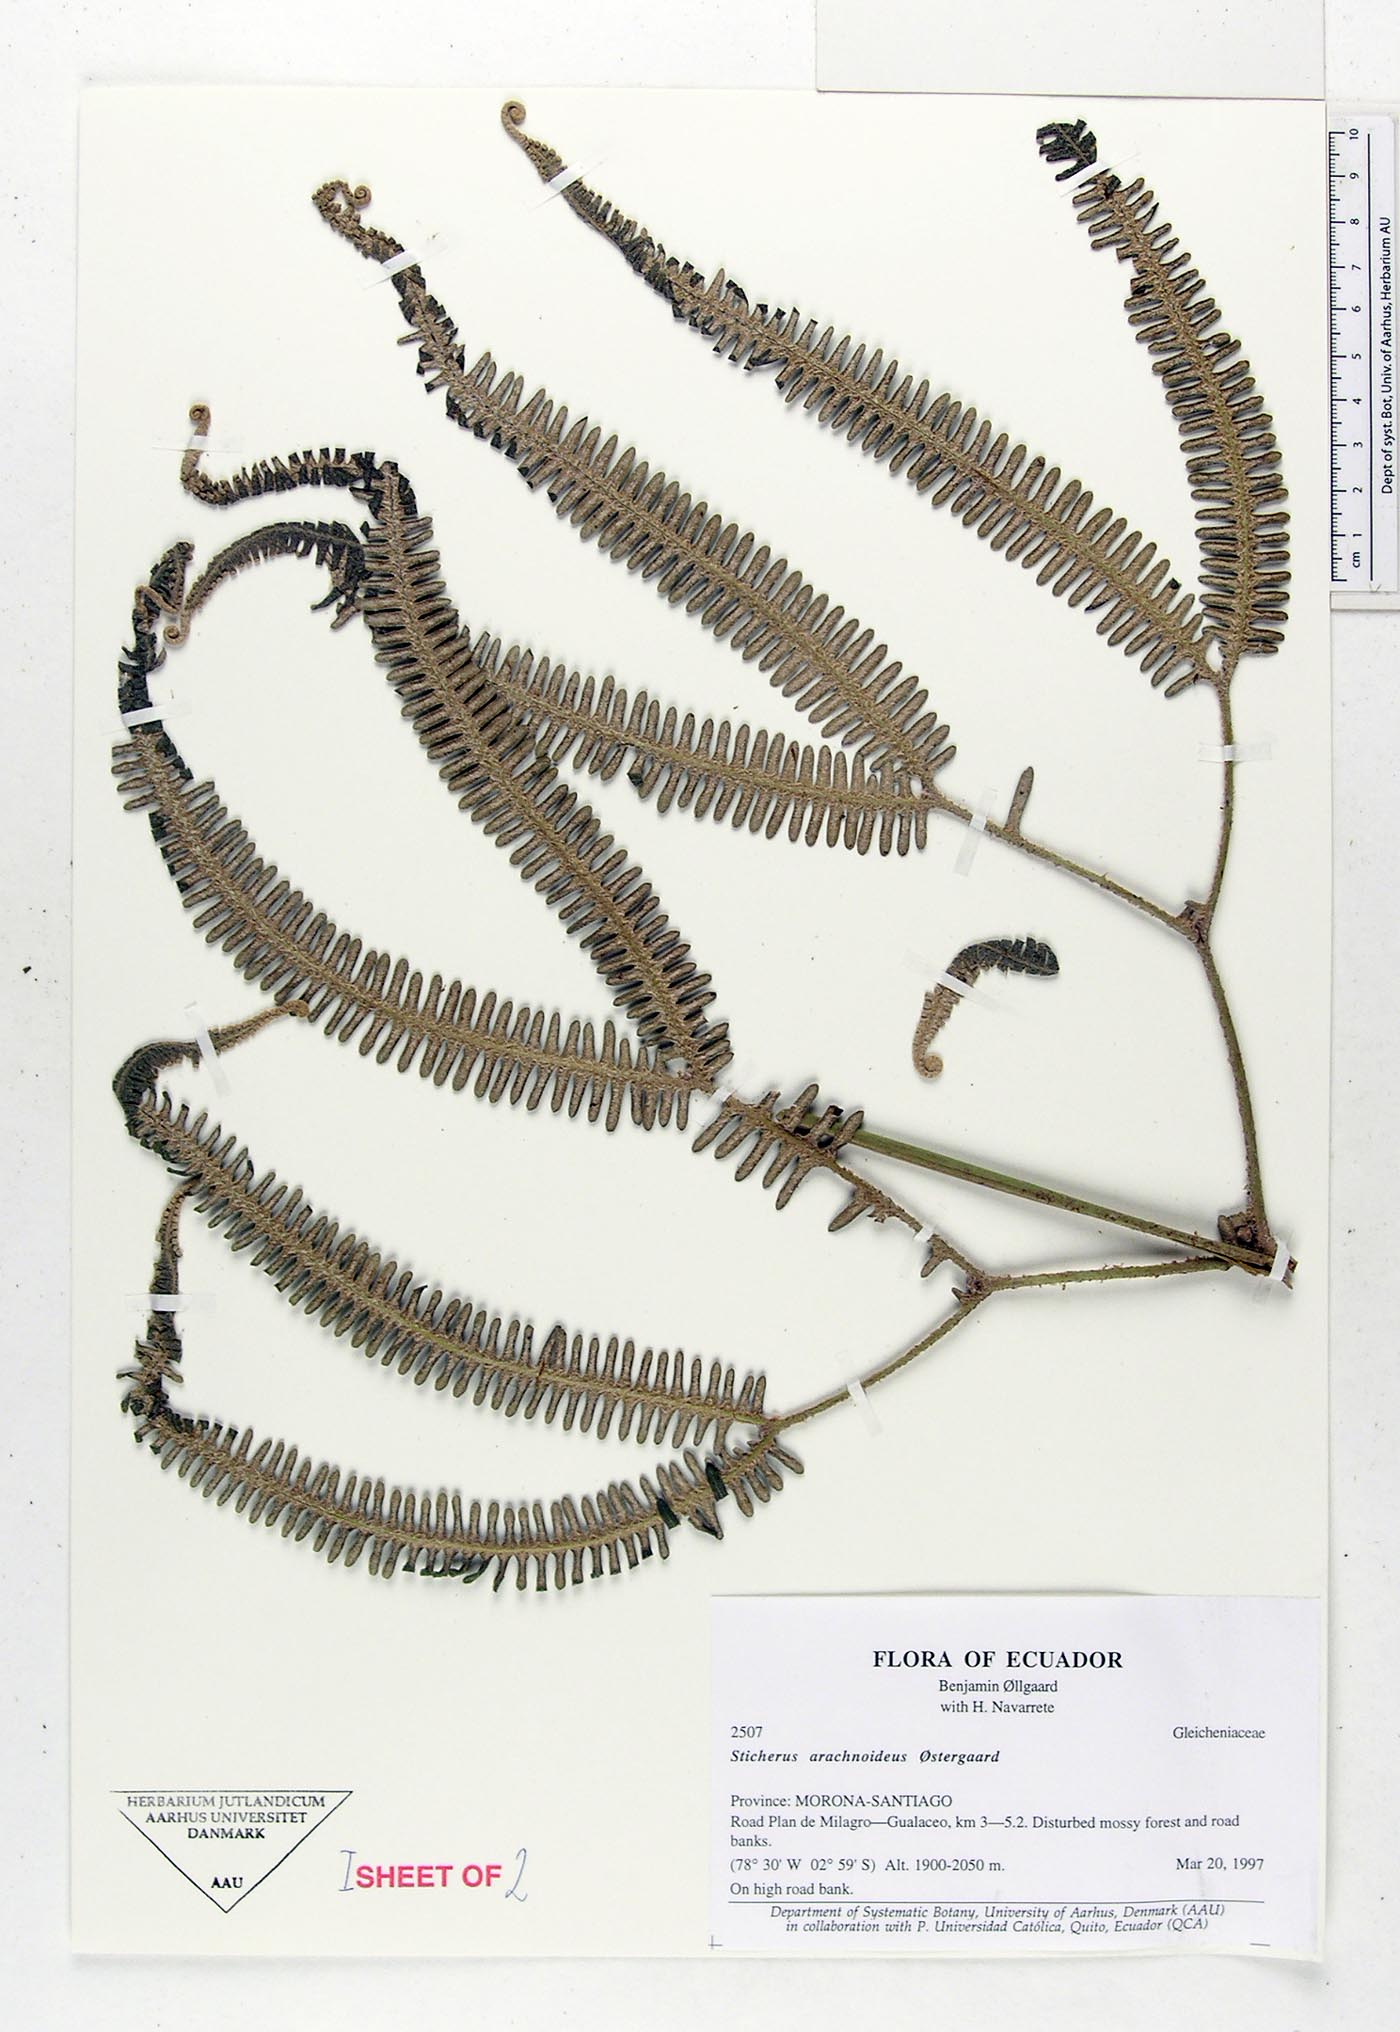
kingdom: Plantae
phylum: Tracheophyta
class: Polypodiopsida
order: Gleicheniales
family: Gleicheniaceae
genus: Sticherus
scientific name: Sticherus
